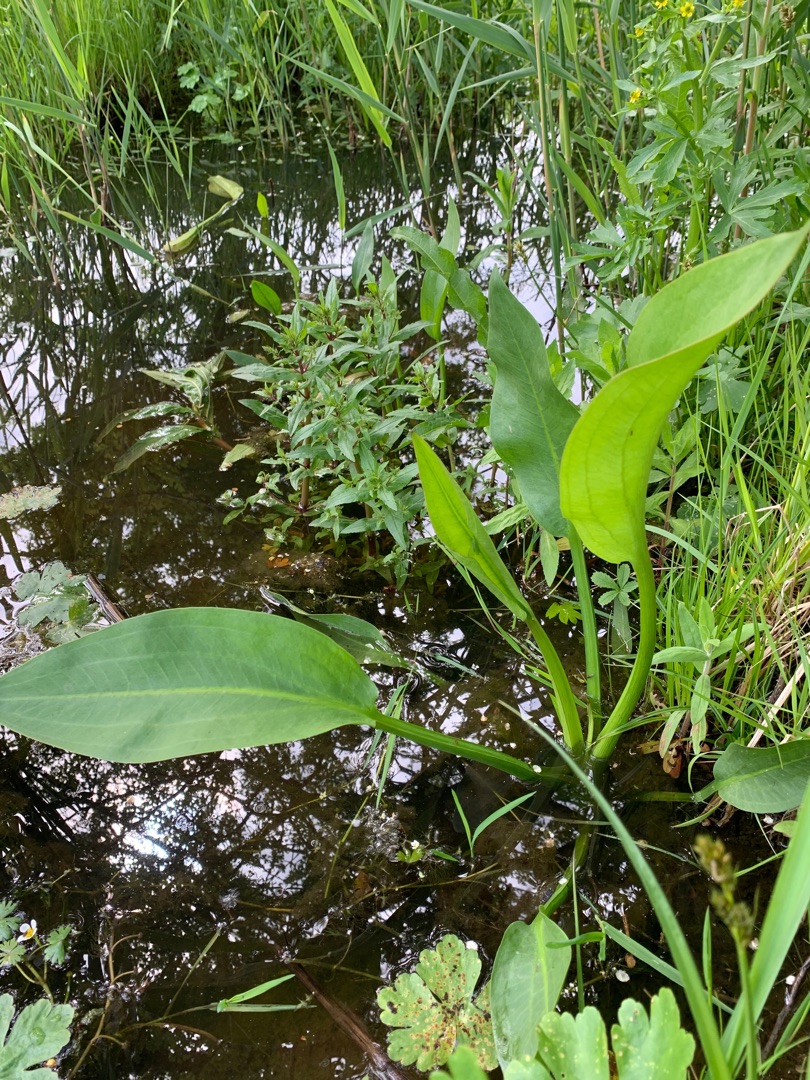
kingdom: Plantae
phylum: Tracheophyta
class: Liliopsida
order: Alismatales
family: Alismataceae
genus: Alisma
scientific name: Alisma plantago-aquatica
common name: Vejbred-skeblad
